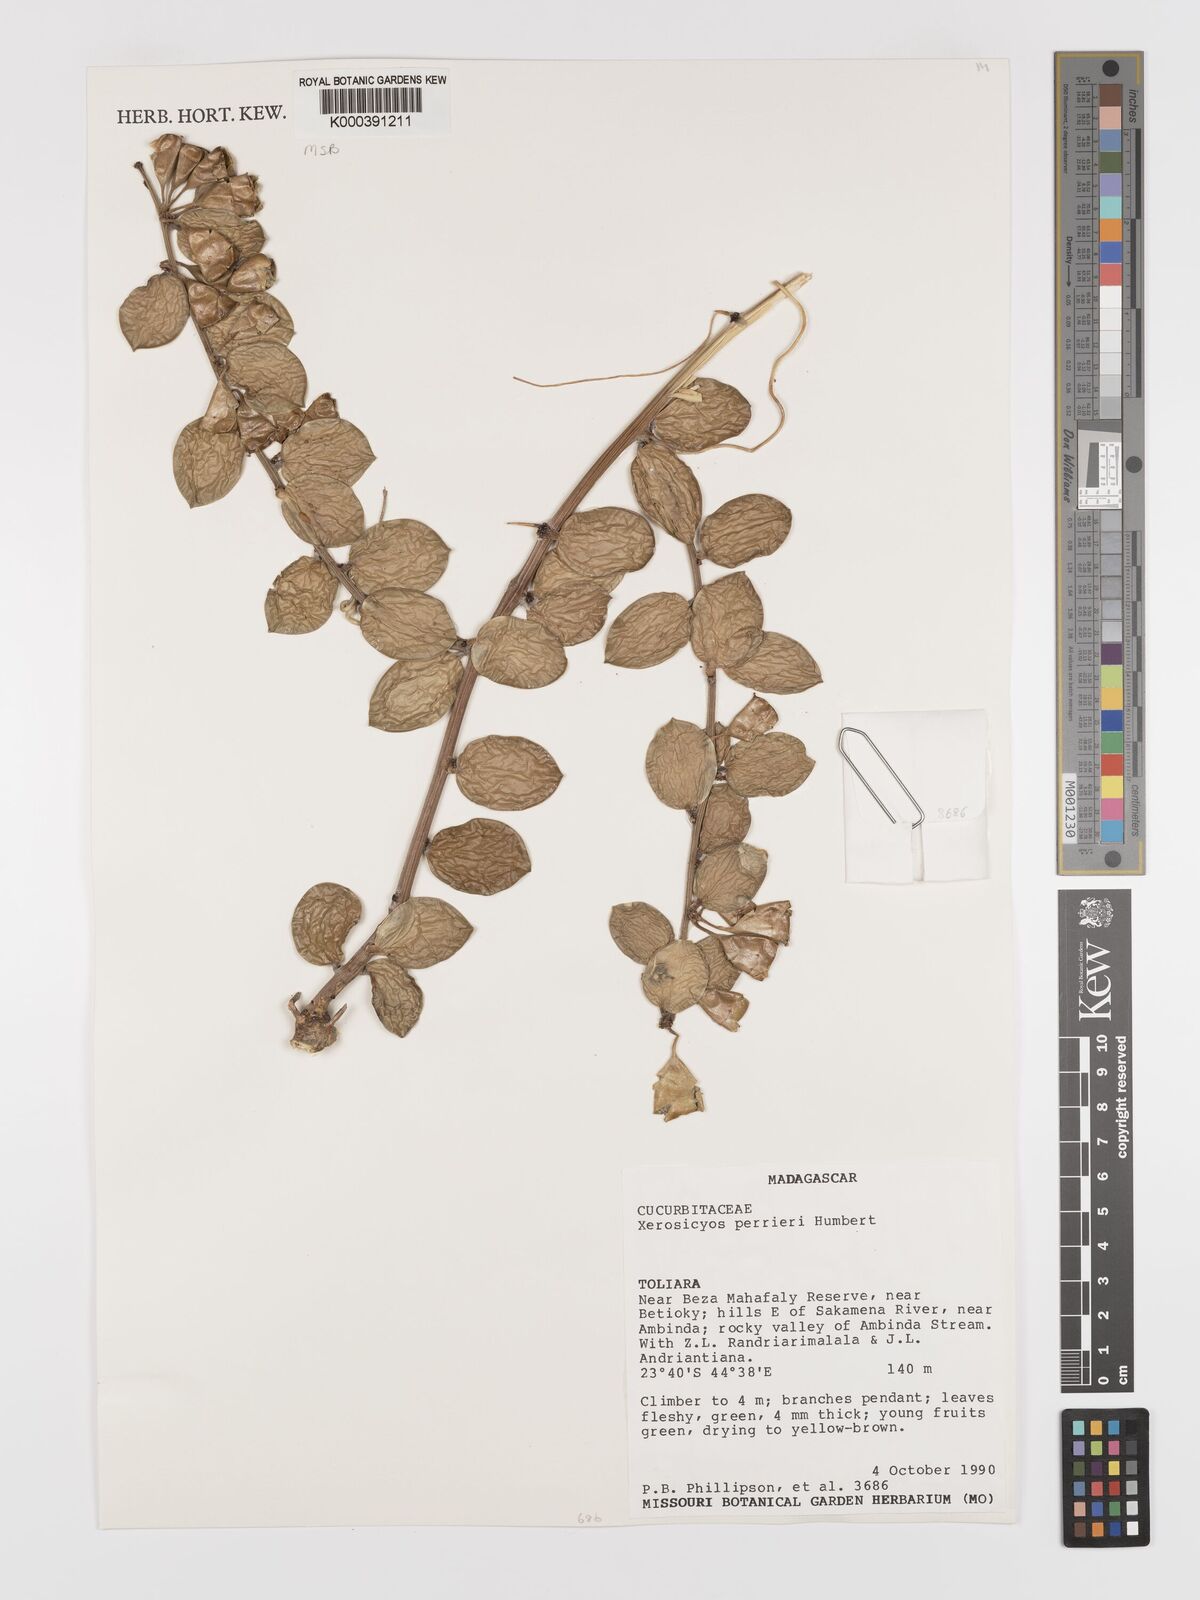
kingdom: Plantae
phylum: Tracheophyta
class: Magnoliopsida
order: Cucurbitales
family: Cucurbitaceae
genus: Xerosicyos
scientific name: Xerosicyos perrieri
